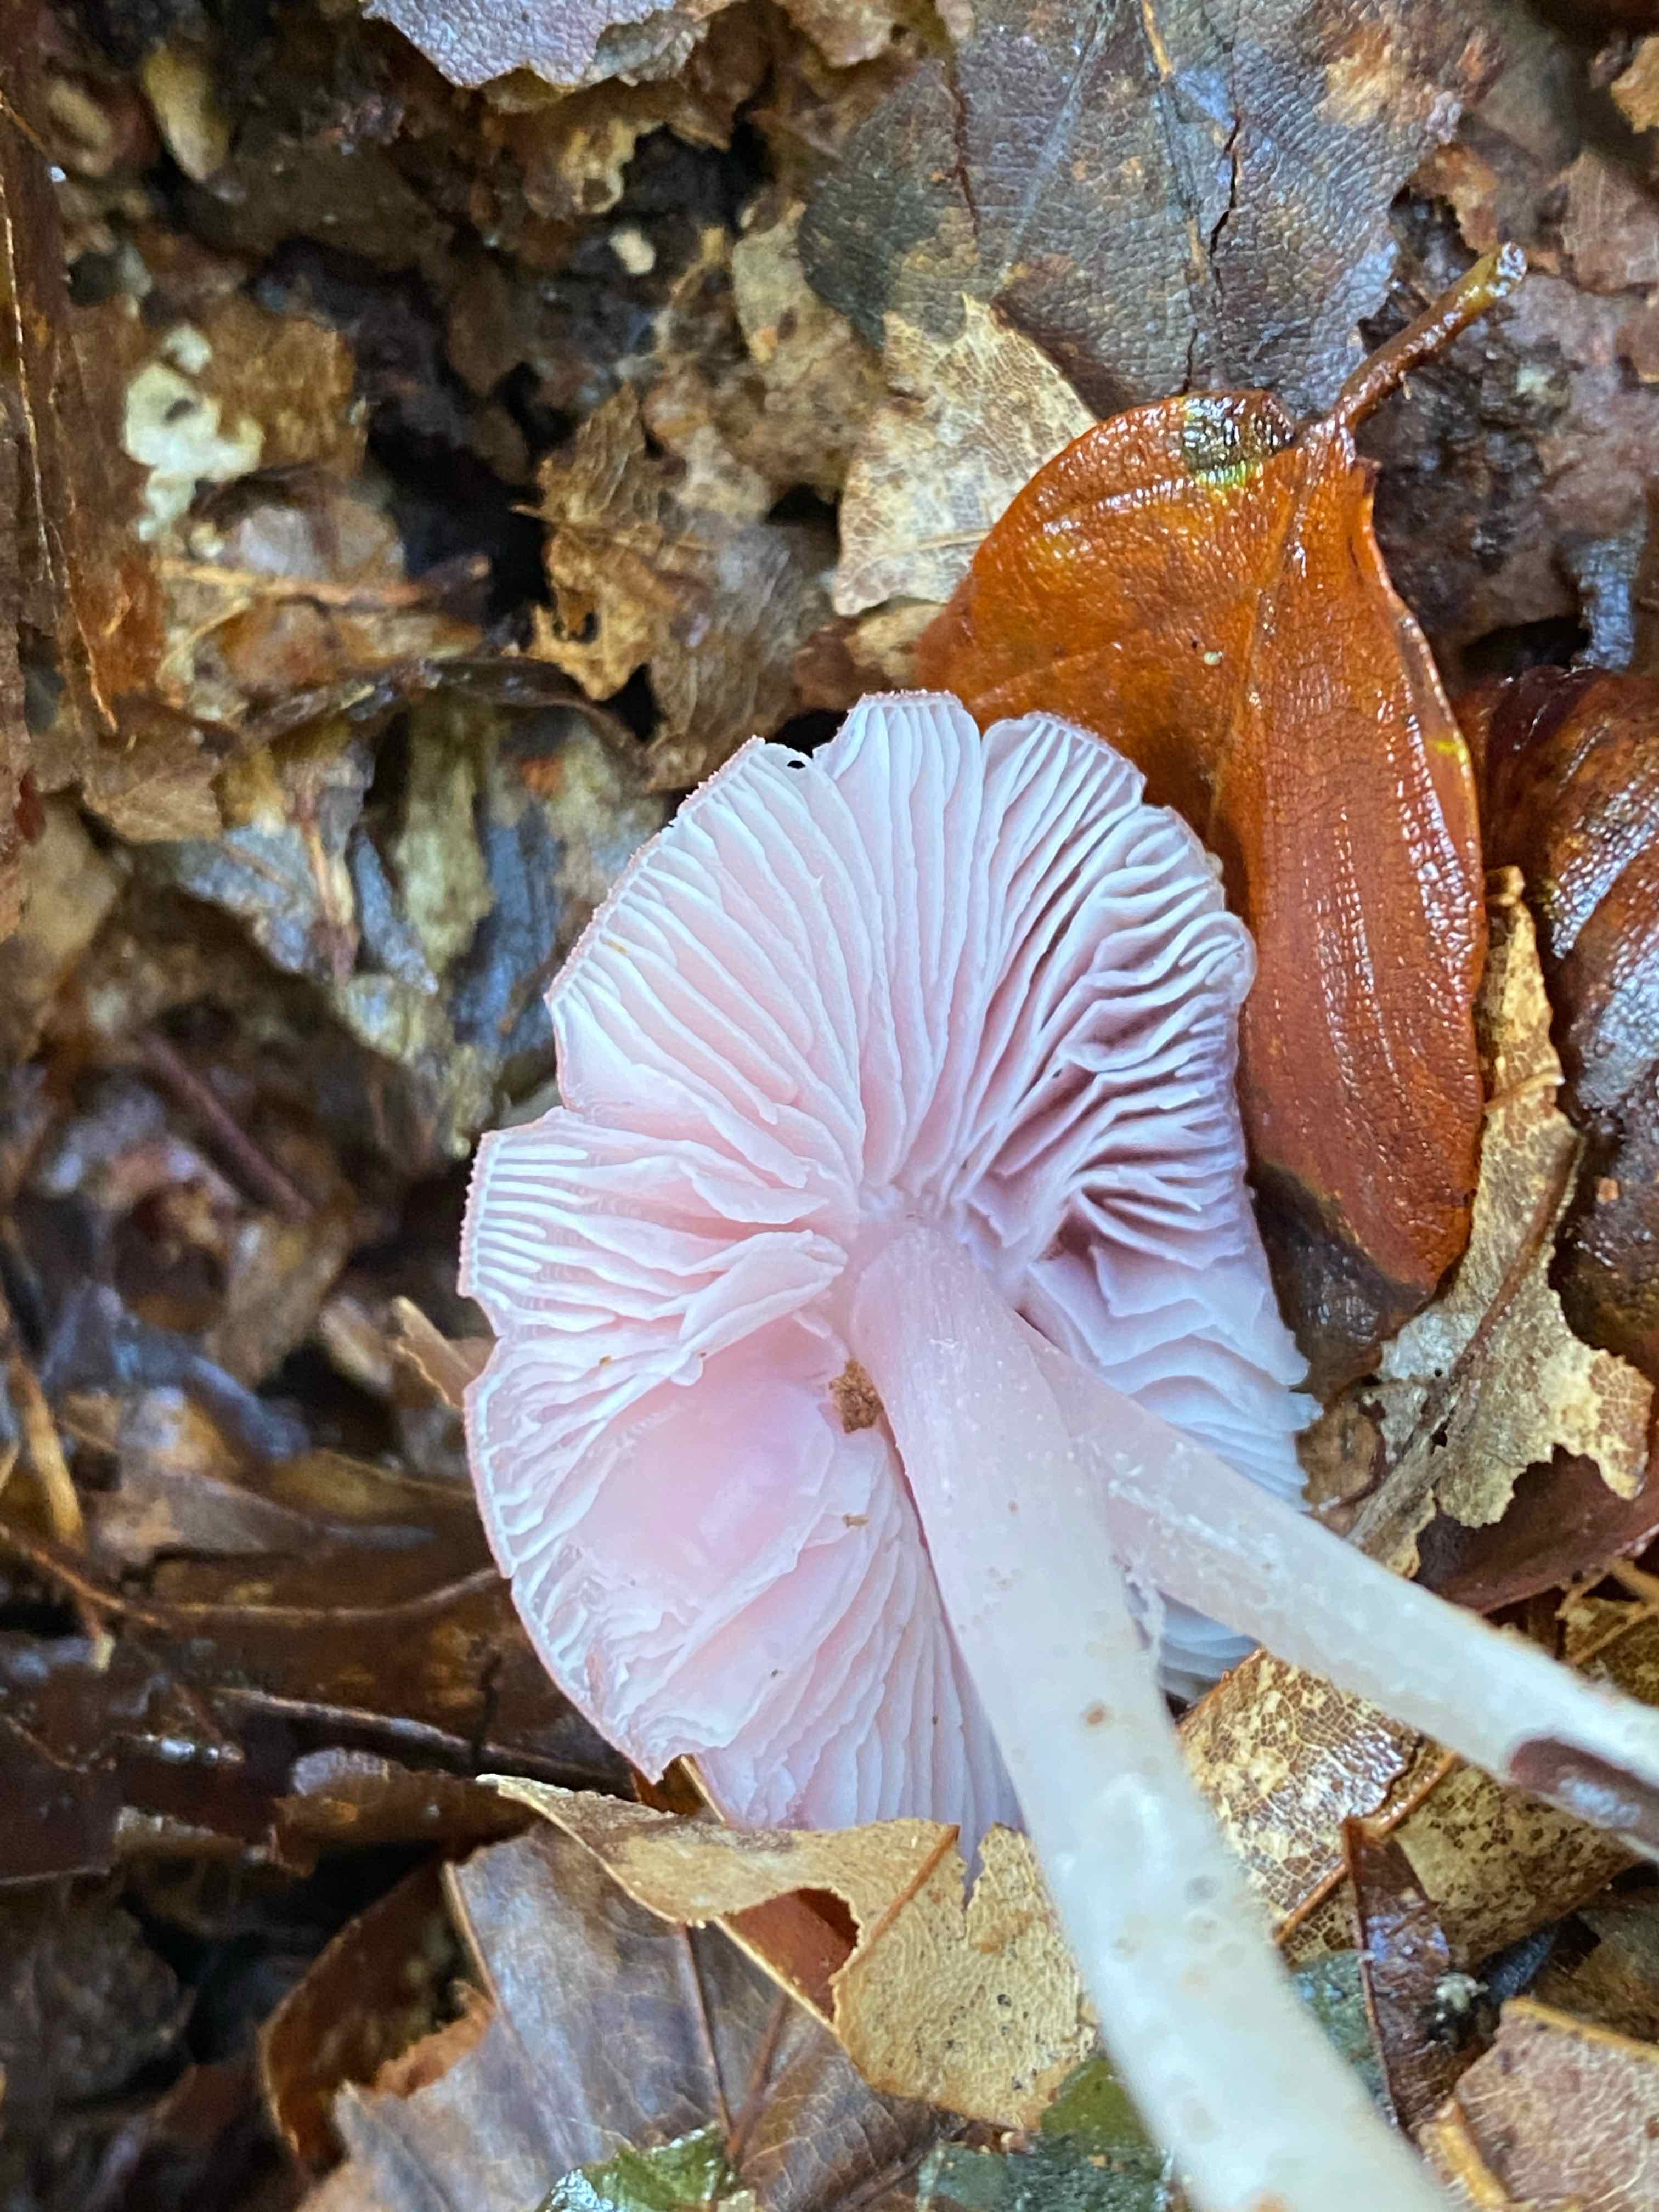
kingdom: Fungi
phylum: Basidiomycota
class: Agaricomycetes
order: Agaricales
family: Mycenaceae
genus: Mycena
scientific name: Mycena rosea
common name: rosa huesvamp
